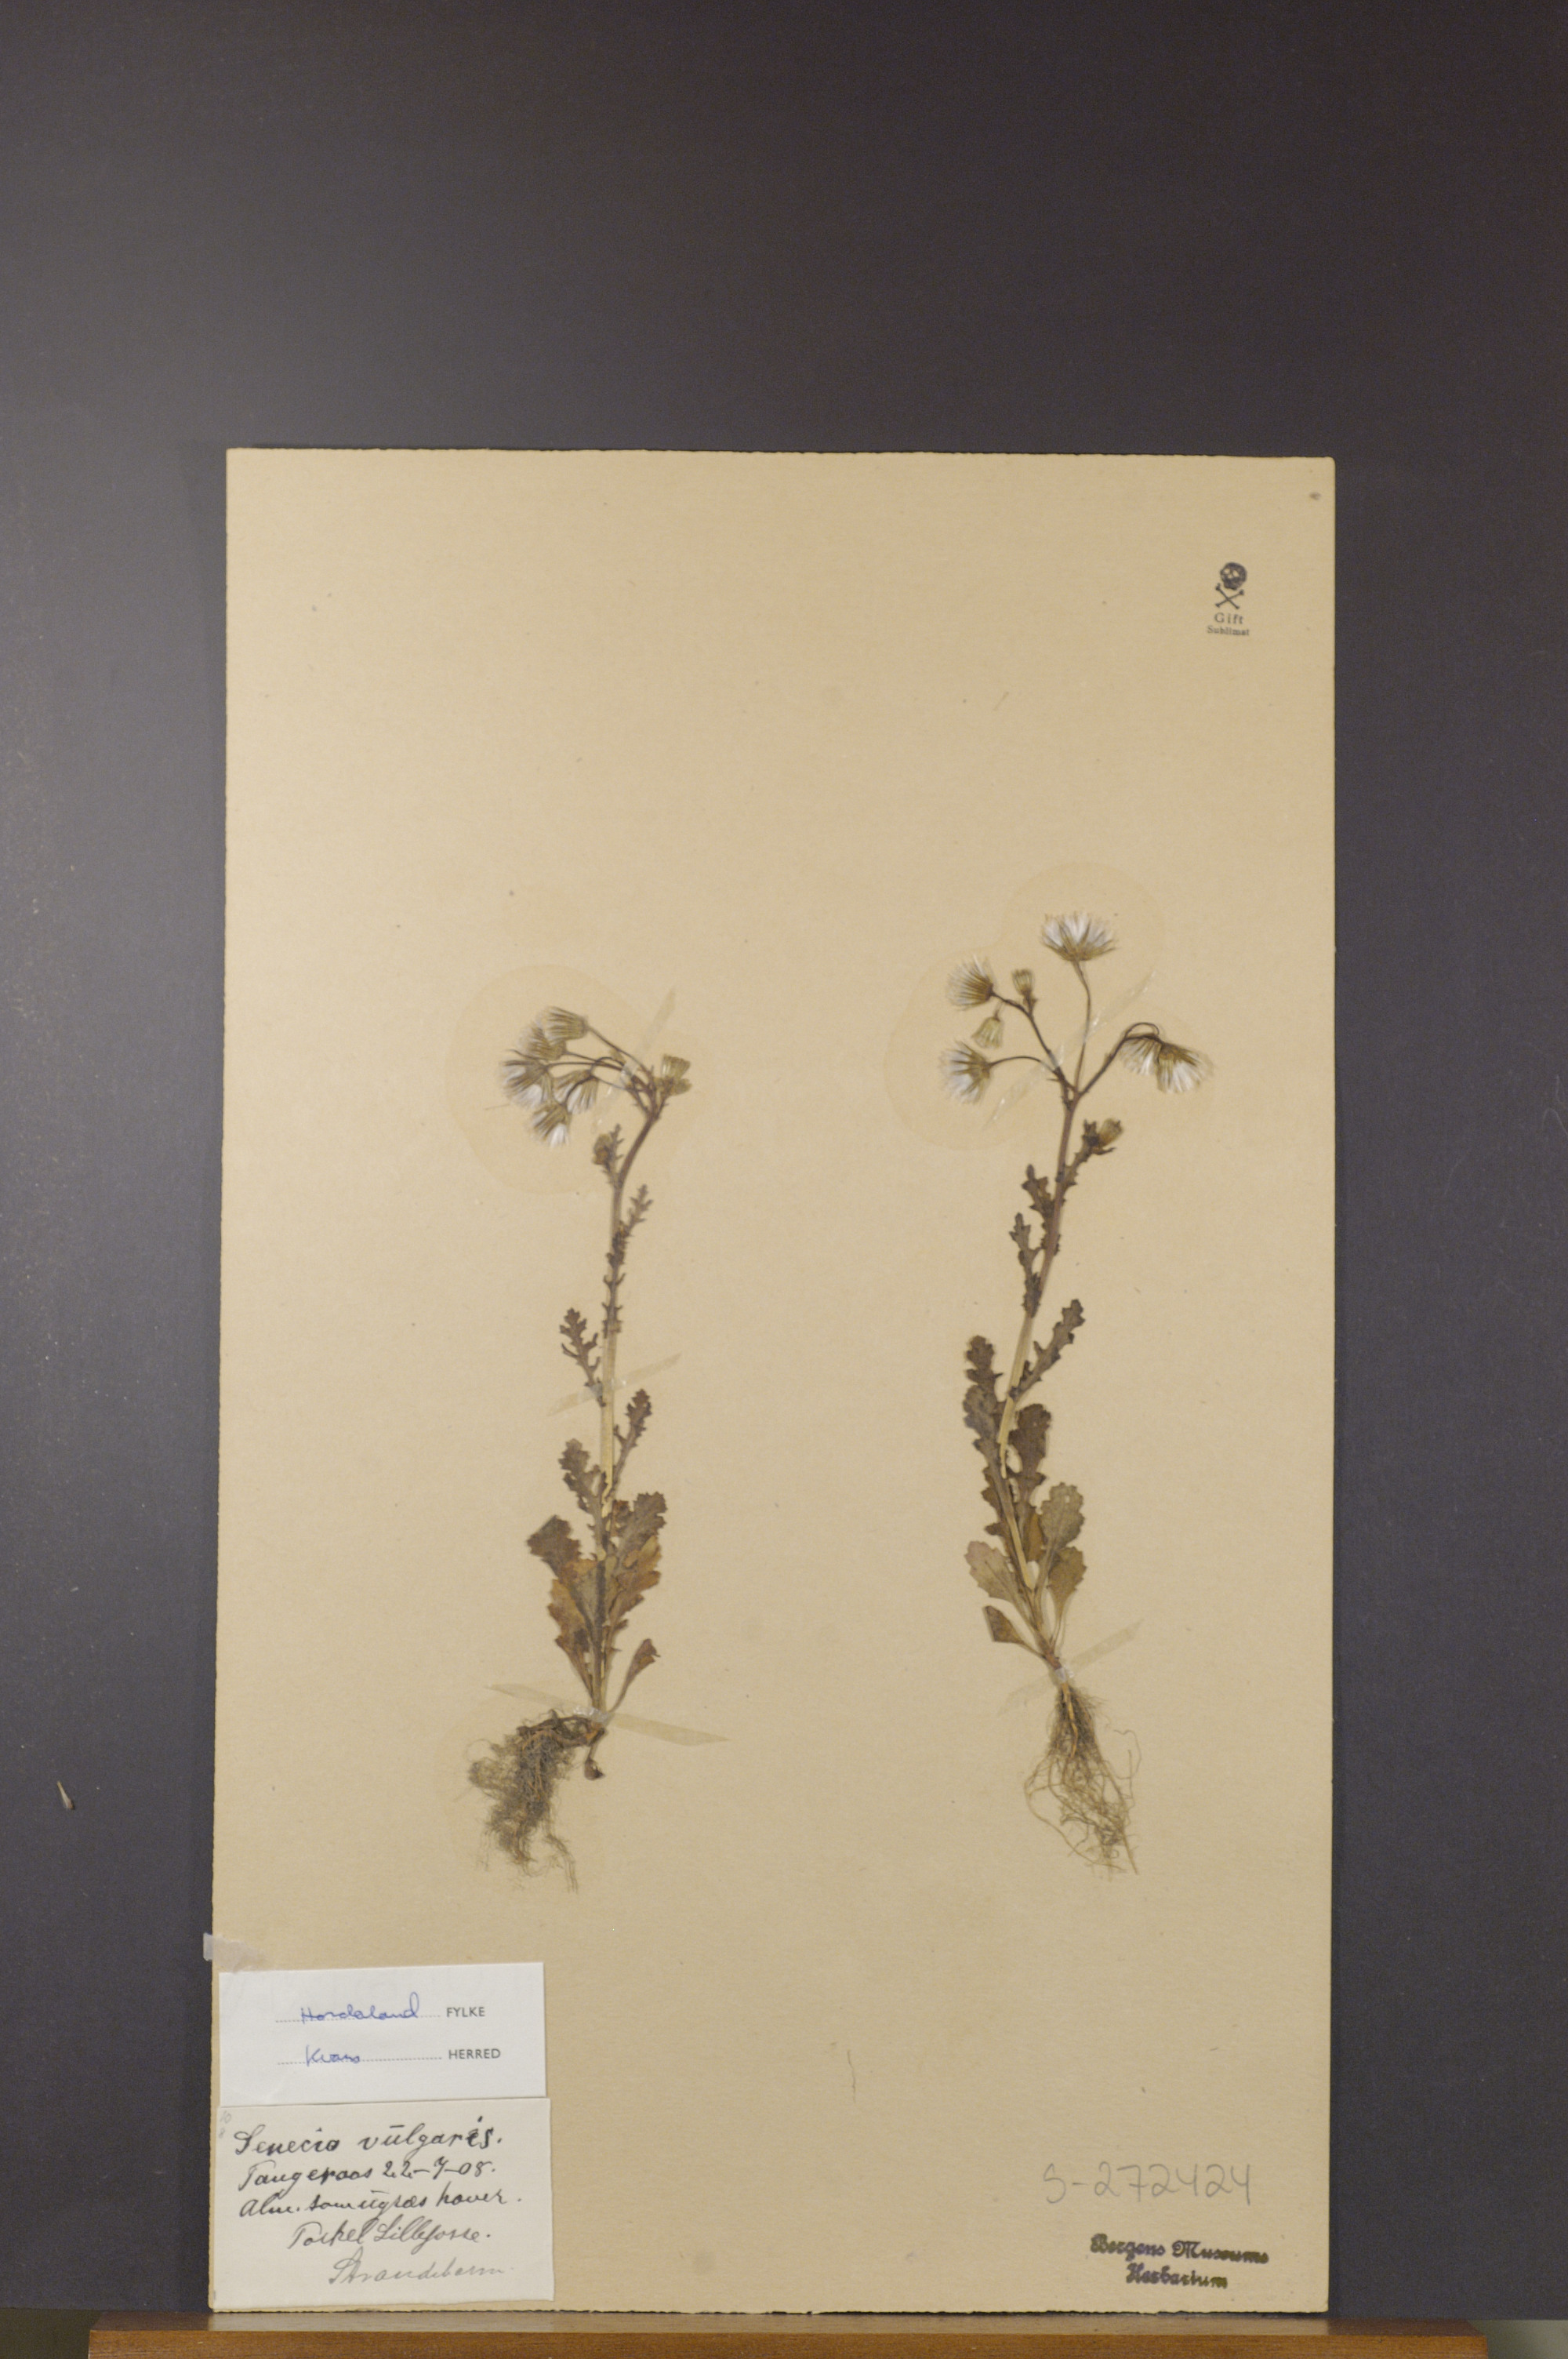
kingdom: Plantae
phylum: Tracheophyta
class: Magnoliopsida
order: Asterales
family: Asteraceae
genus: Senecio
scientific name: Senecio vulgaris
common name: Old-man-in-the-spring
